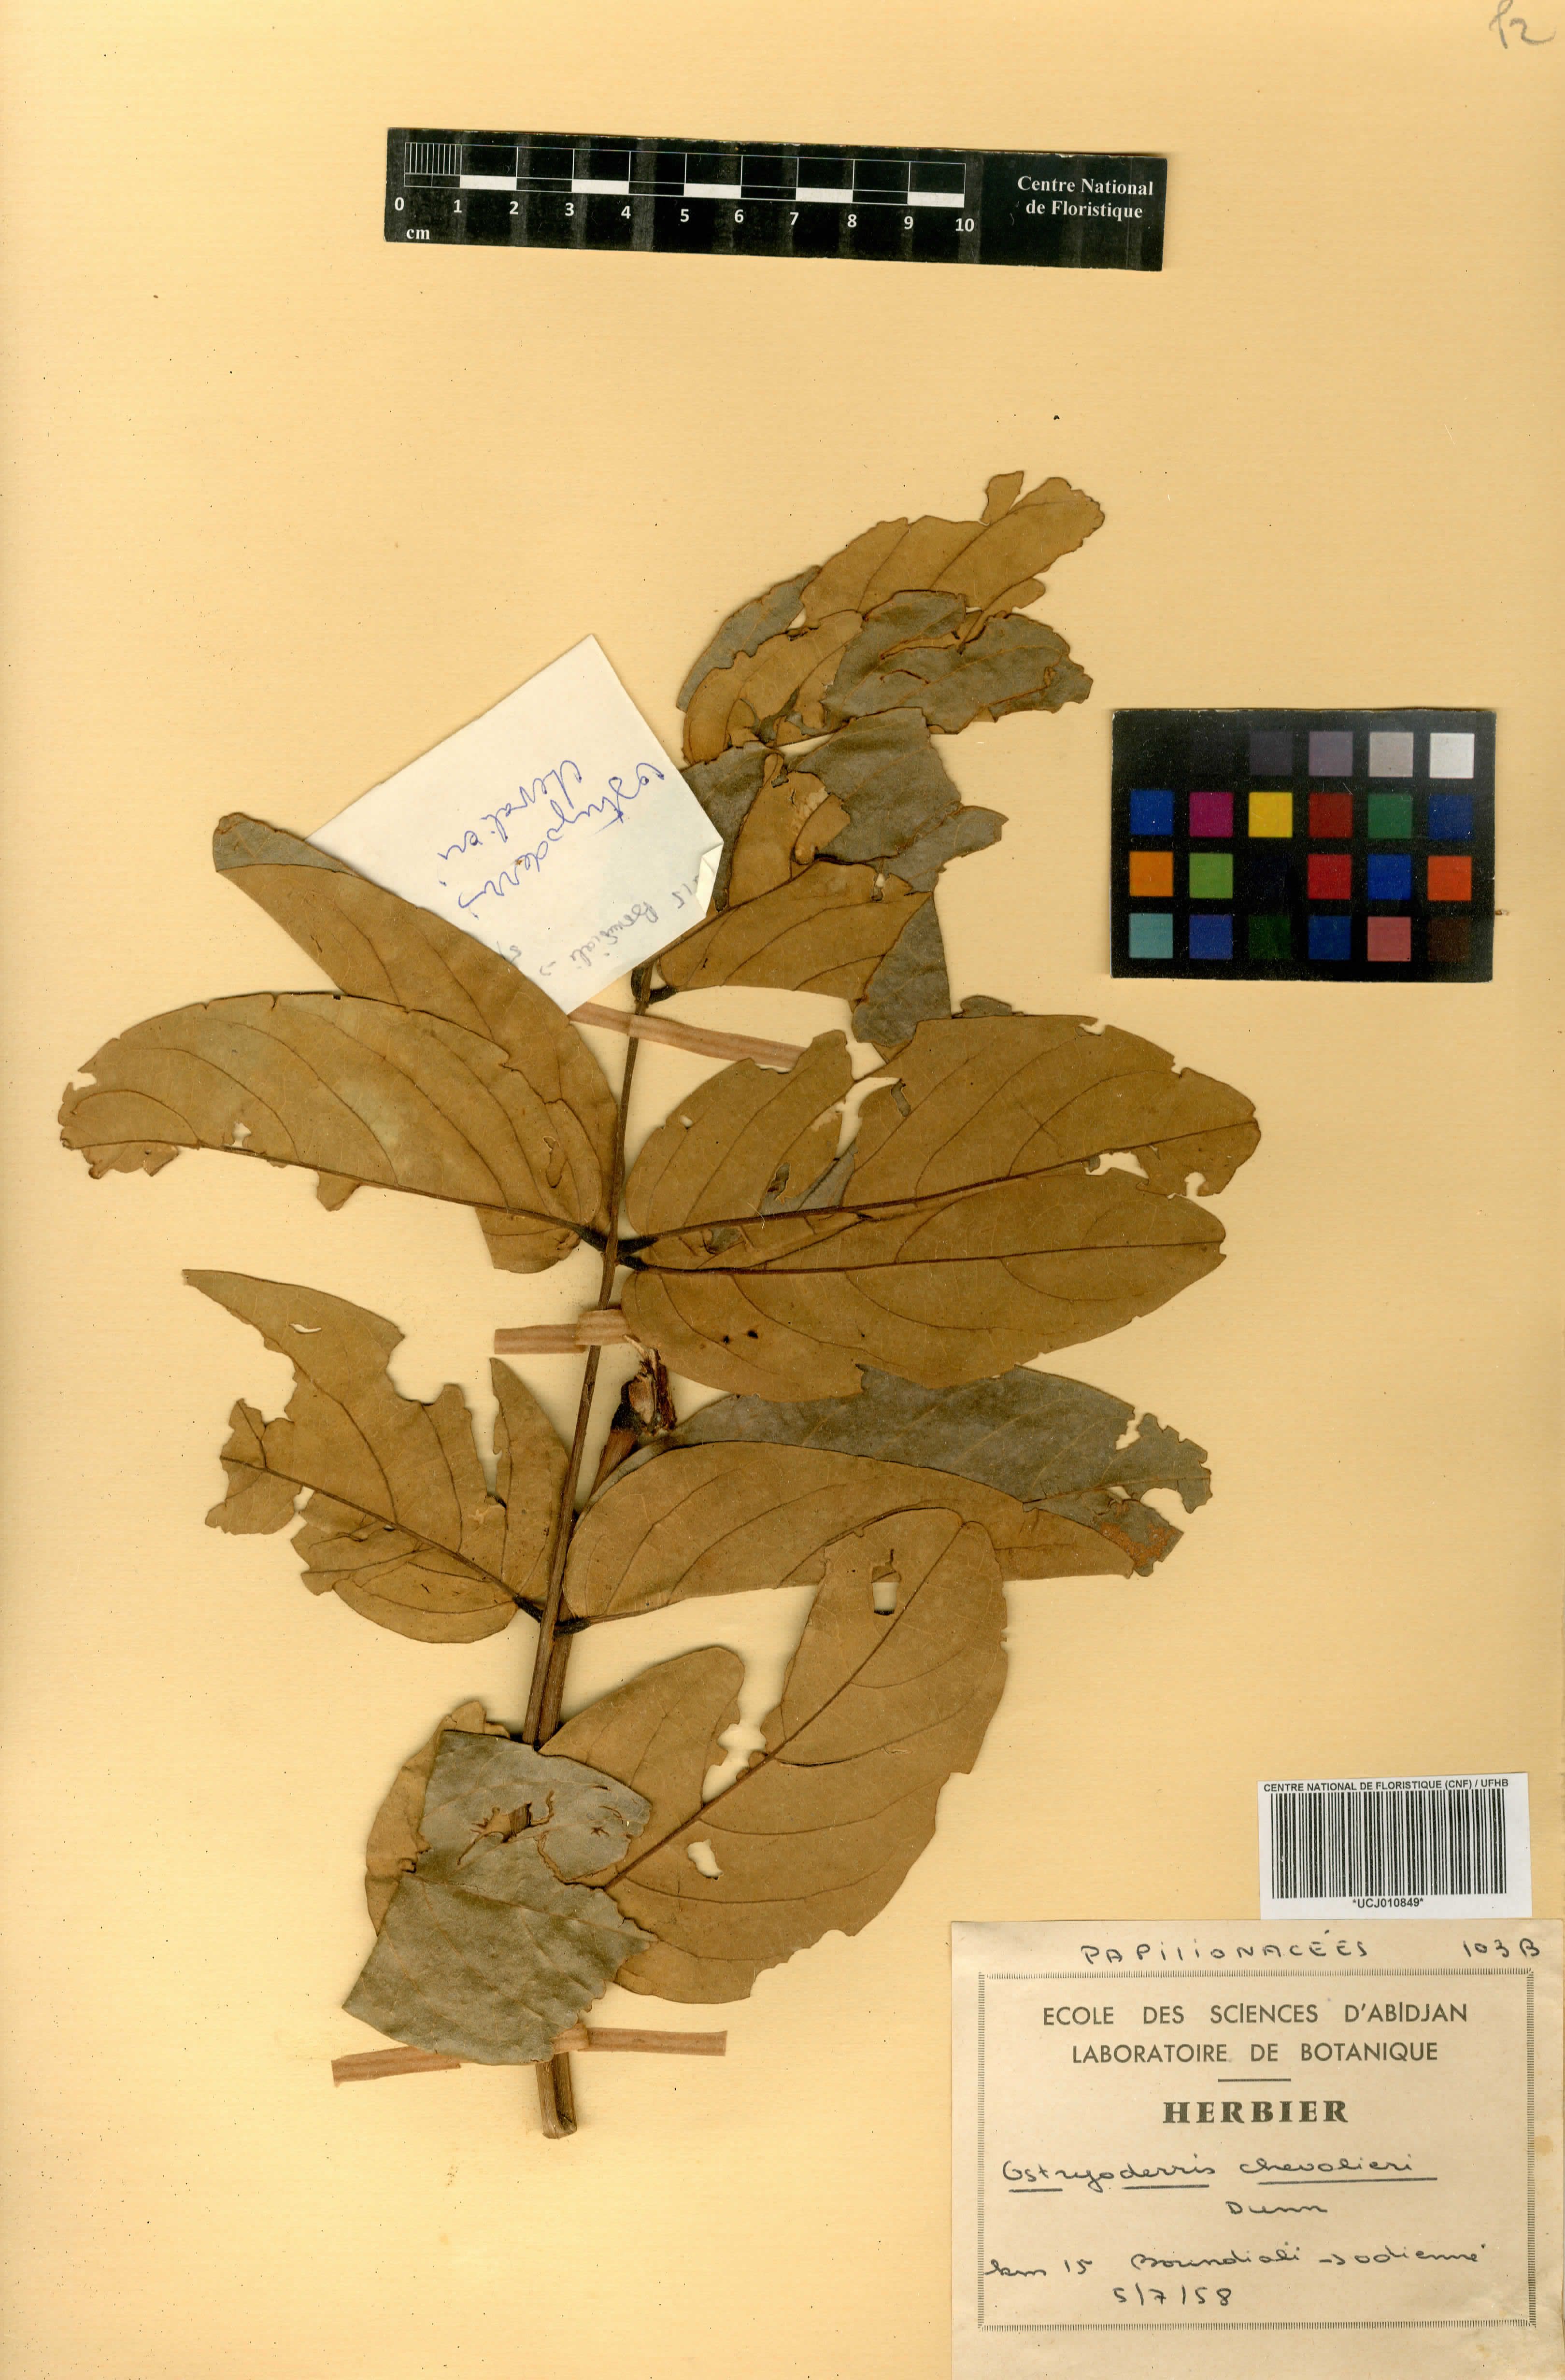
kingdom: Plantae
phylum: Tracheophyta
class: Magnoliopsida
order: Fabales
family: Fabaceae
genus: Aganope
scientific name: Aganope stuhlmannii
